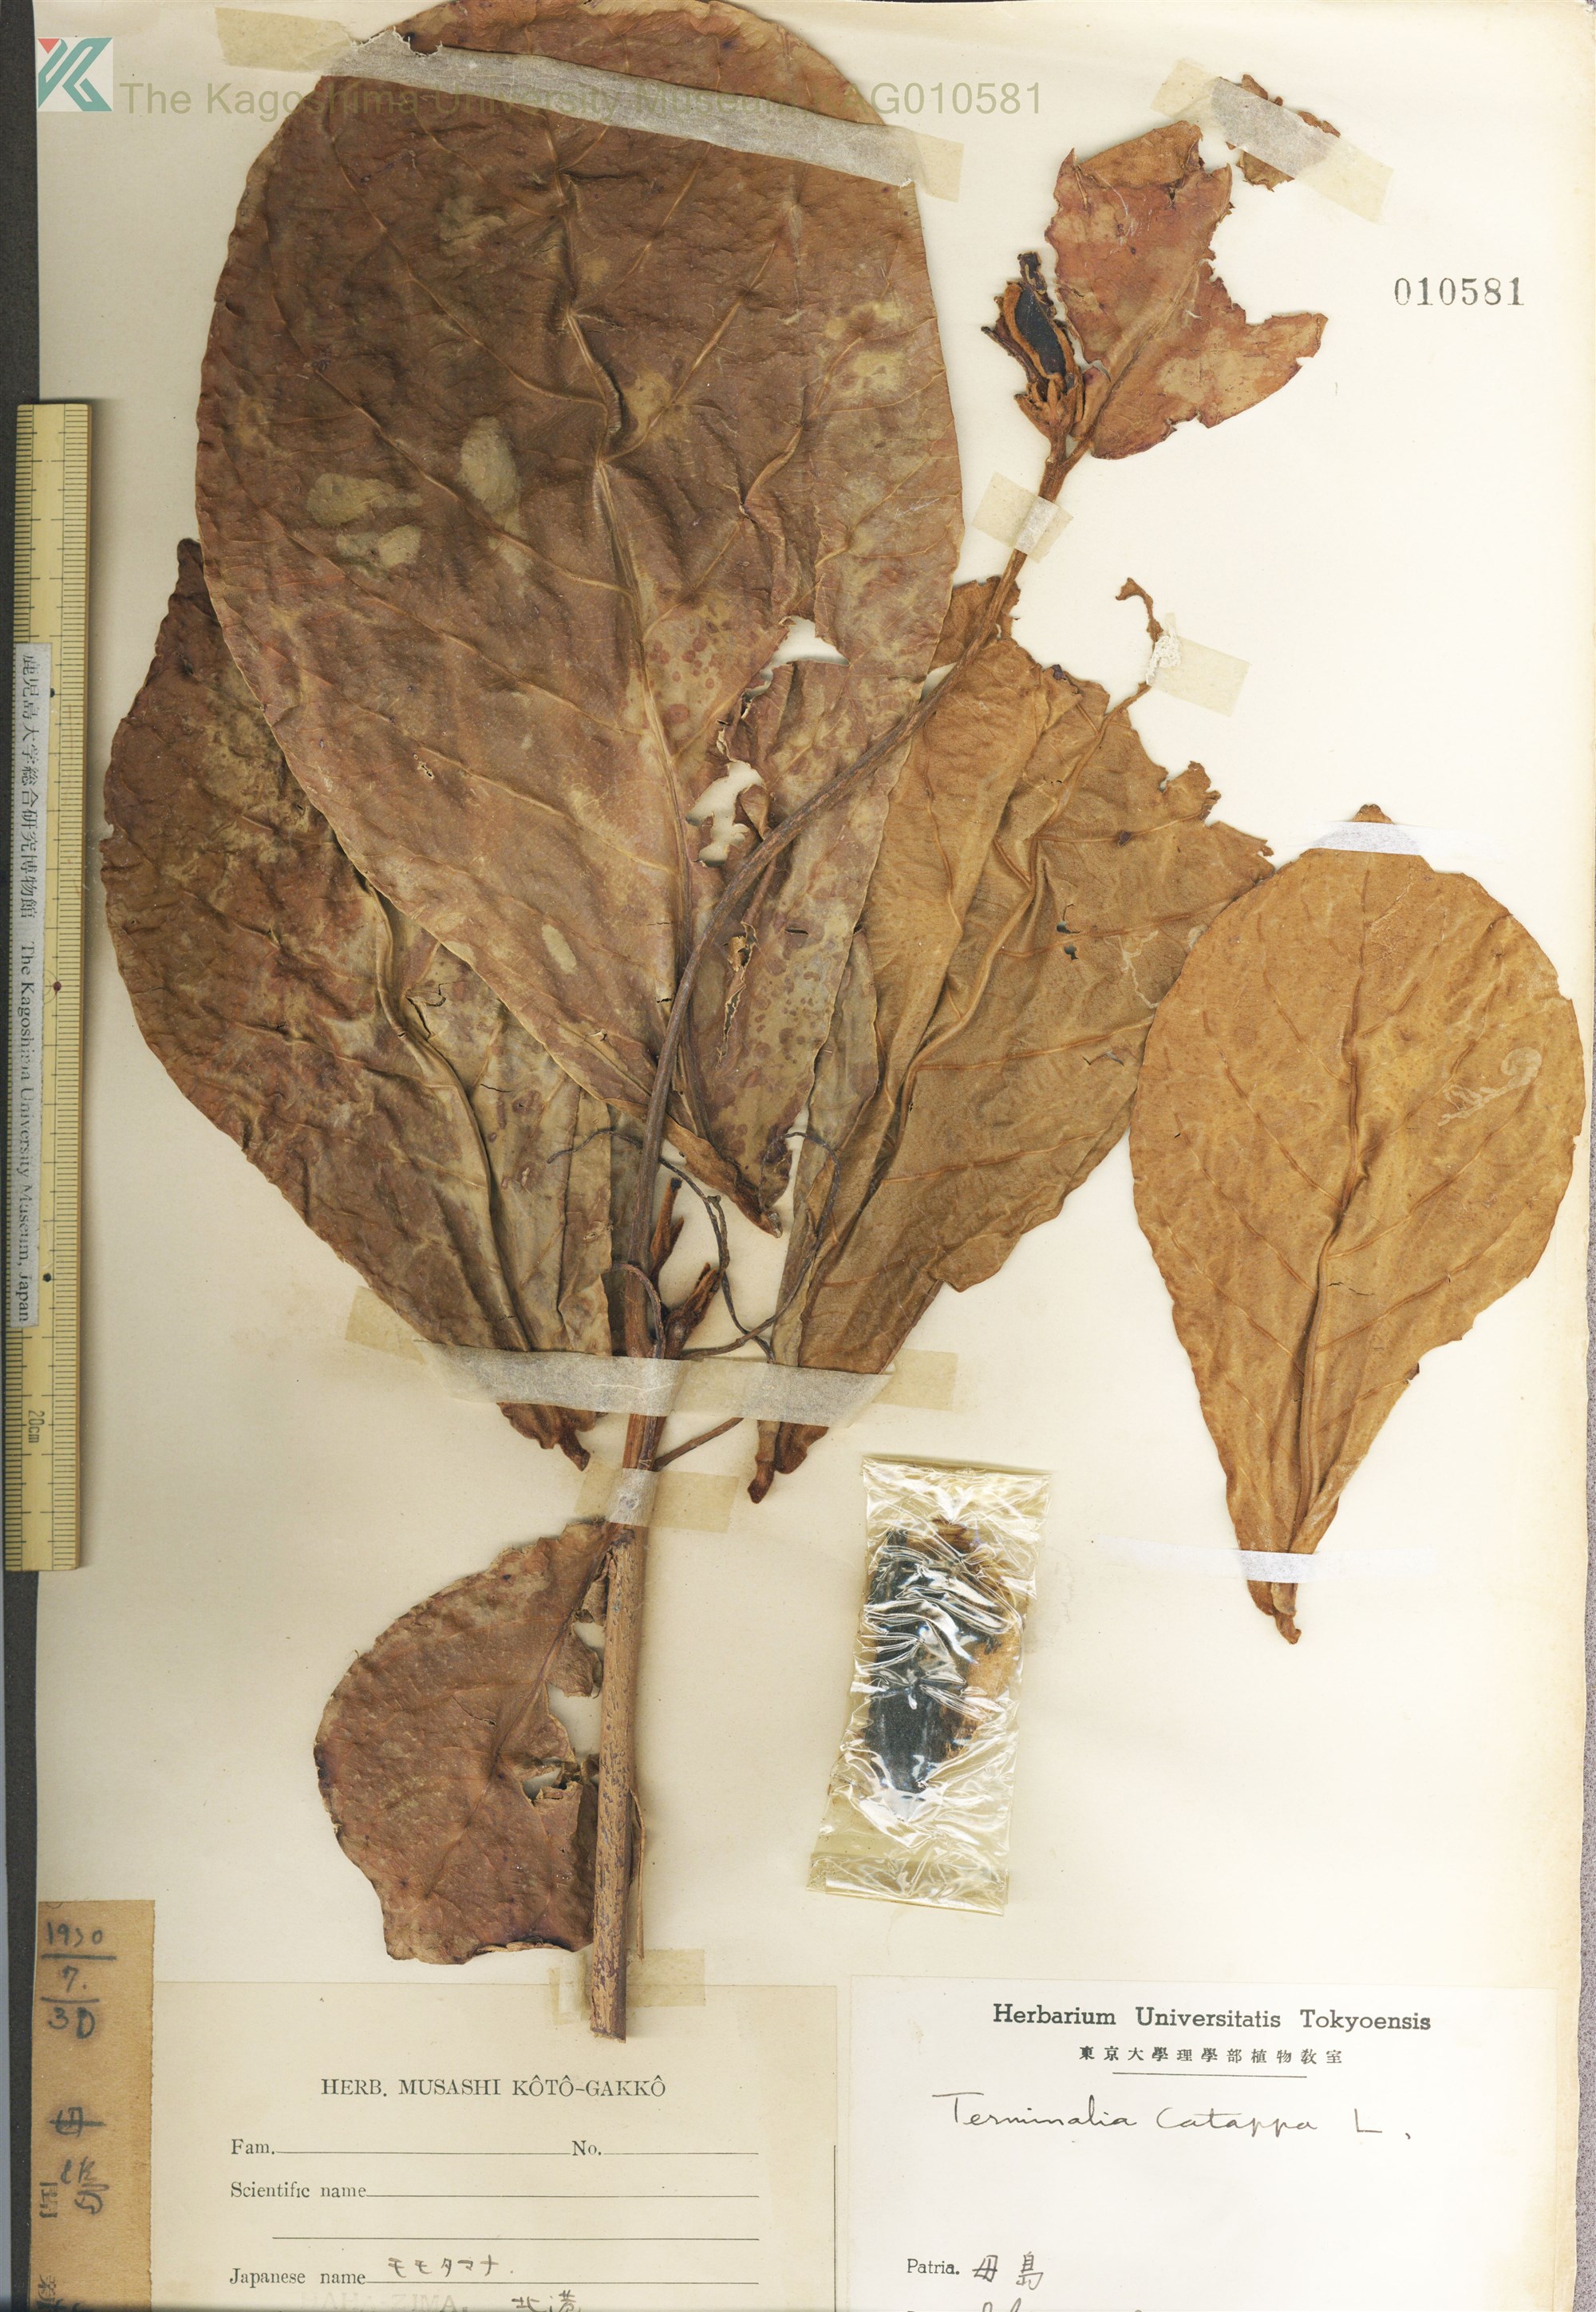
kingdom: Plantae
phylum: Tracheophyta
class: Magnoliopsida
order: Myrtales
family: Combretaceae
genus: Terminalia
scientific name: Terminalia catappa
